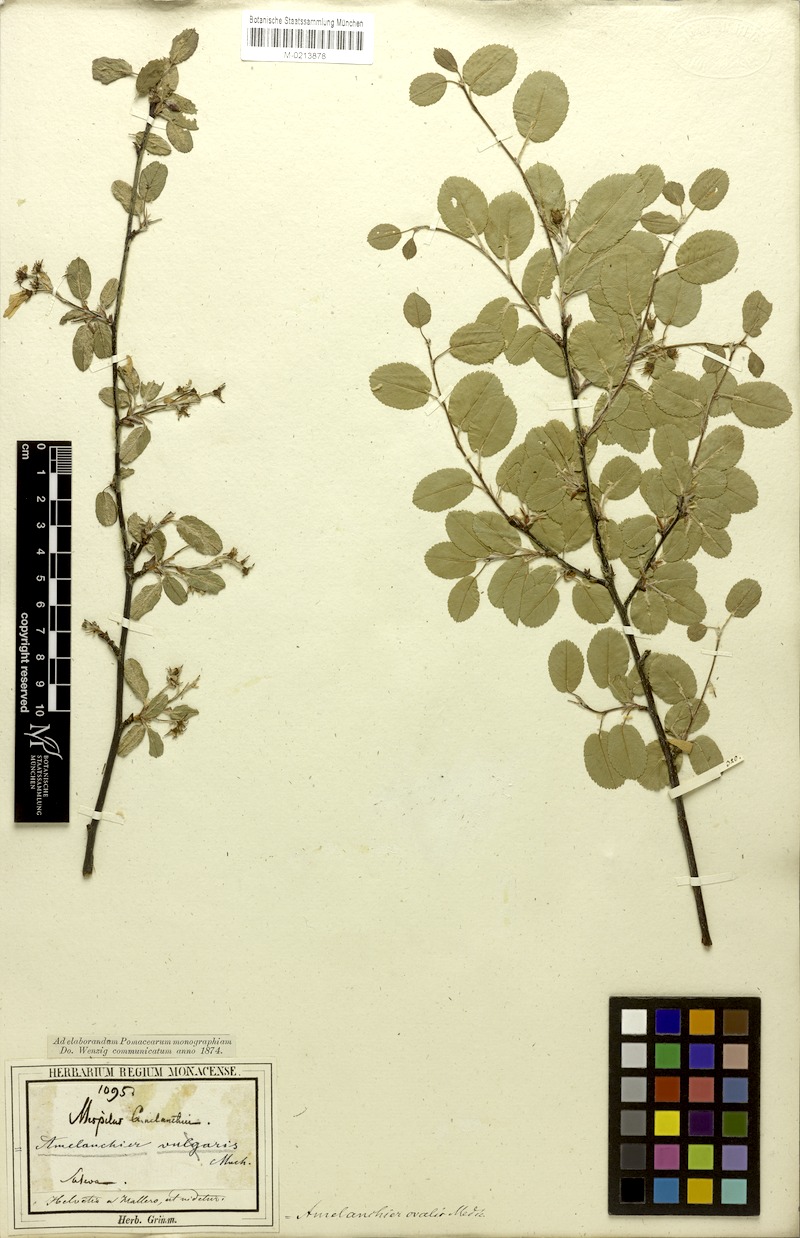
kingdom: Plantae
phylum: Tracheophyta
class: Magnoliopsida
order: Rosales
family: Rosaceae
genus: Amelanchier
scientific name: Amelanchier ovalis
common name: Serviceberry
